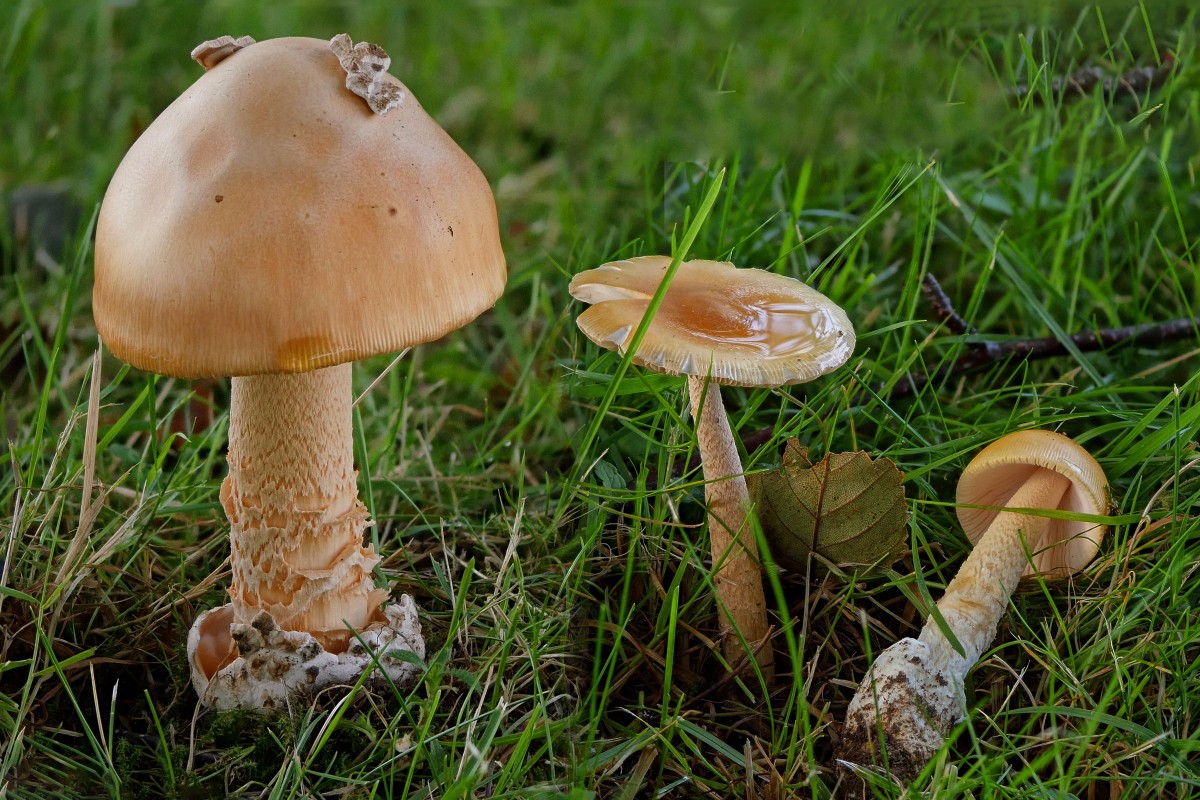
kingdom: Fungi
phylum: Basidiomycota
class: Agaricomycetes
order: Agaricales
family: Amanitaceae
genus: Amanita
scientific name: Amanita crocea
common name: gylden kam-fluesvamp
